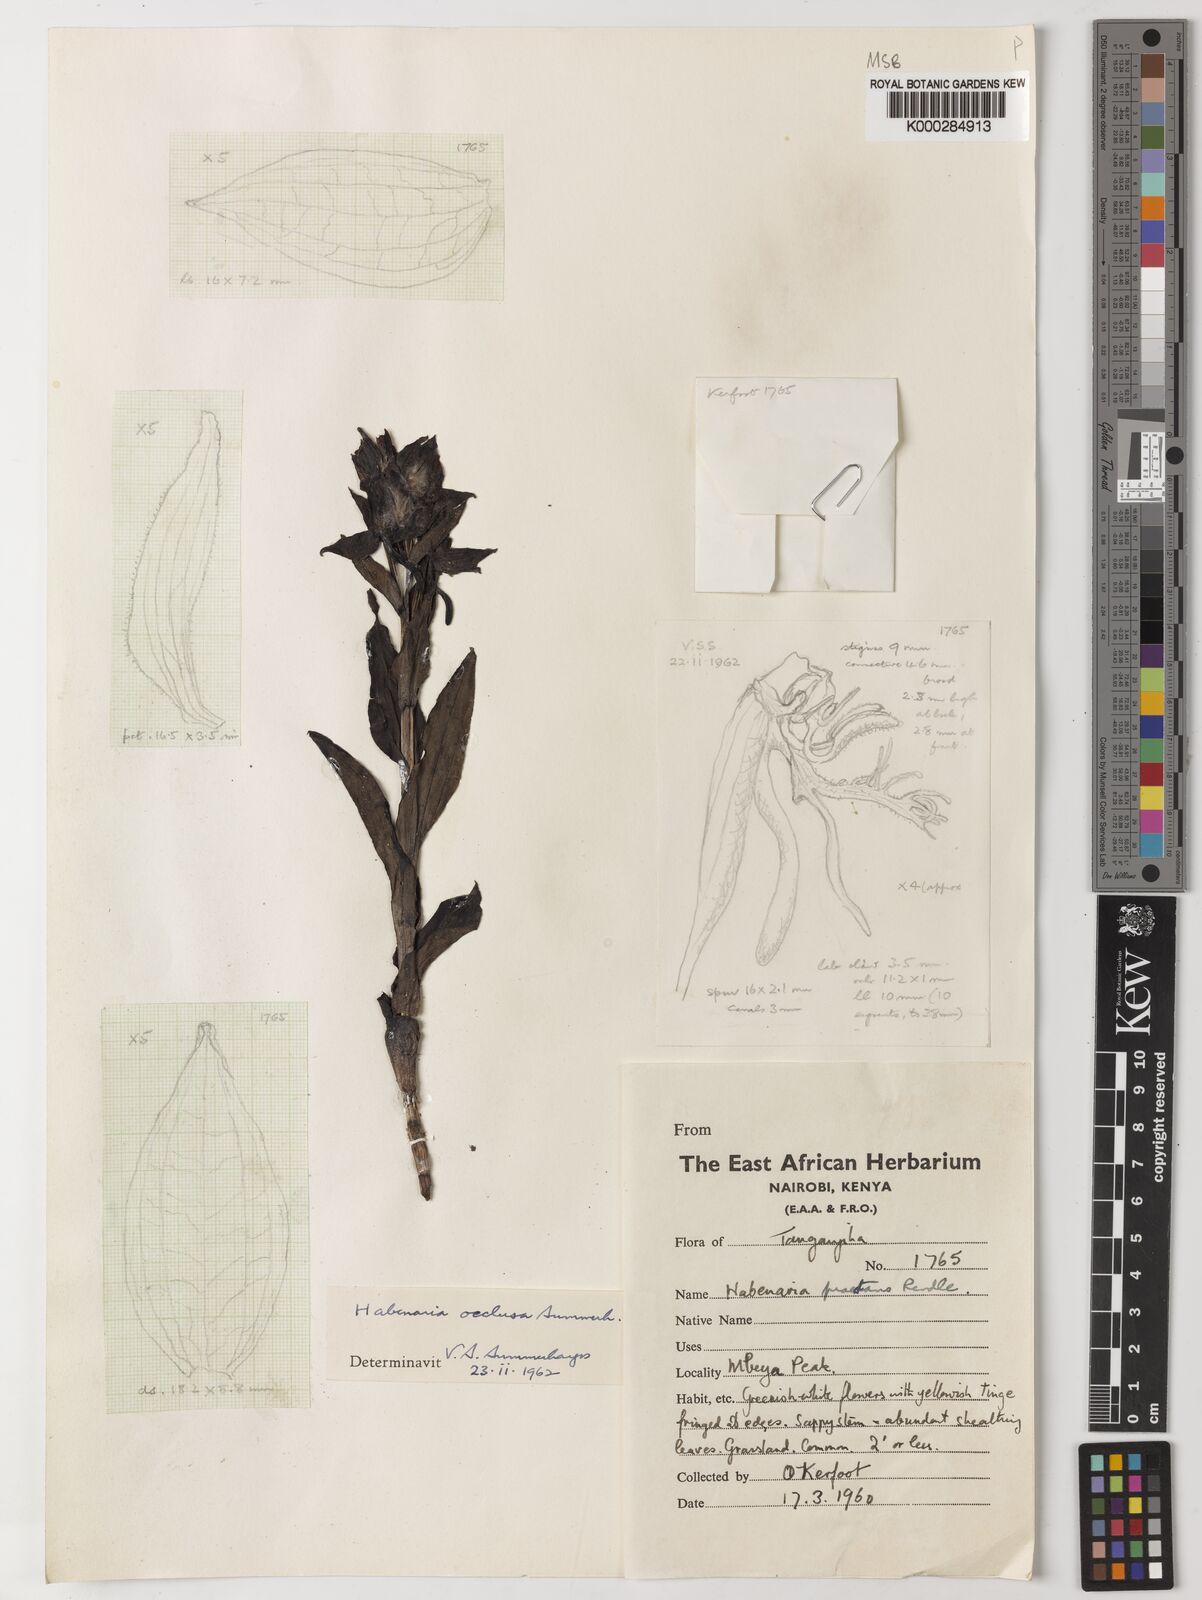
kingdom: Plantae
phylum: Tracheophyta
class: Liliopsida
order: Asparagales
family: Orchidaceae
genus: Habenaria
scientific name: Habenaria occlusa
